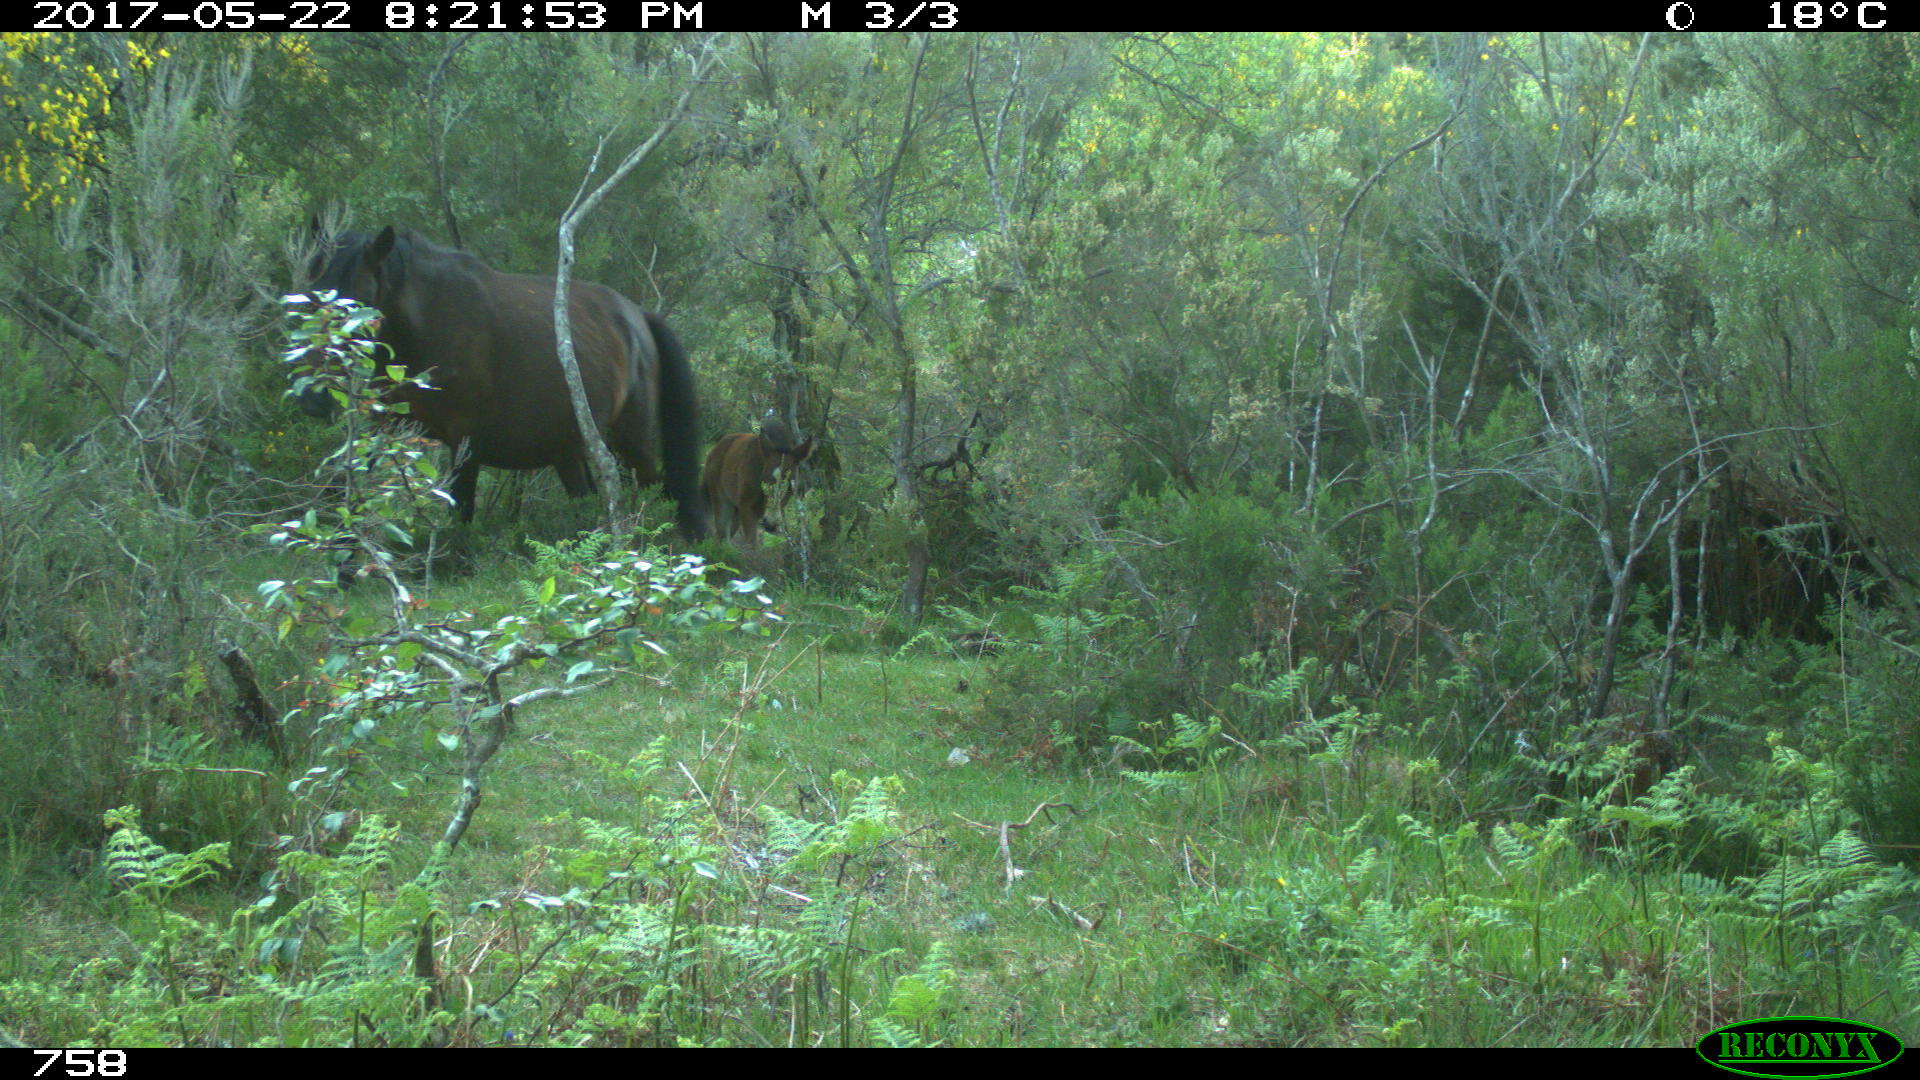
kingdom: Animalia
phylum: Chordata
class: Mammalia
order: Perissodactyla
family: Equidae
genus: Equus
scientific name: Equus caballus
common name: Horse
